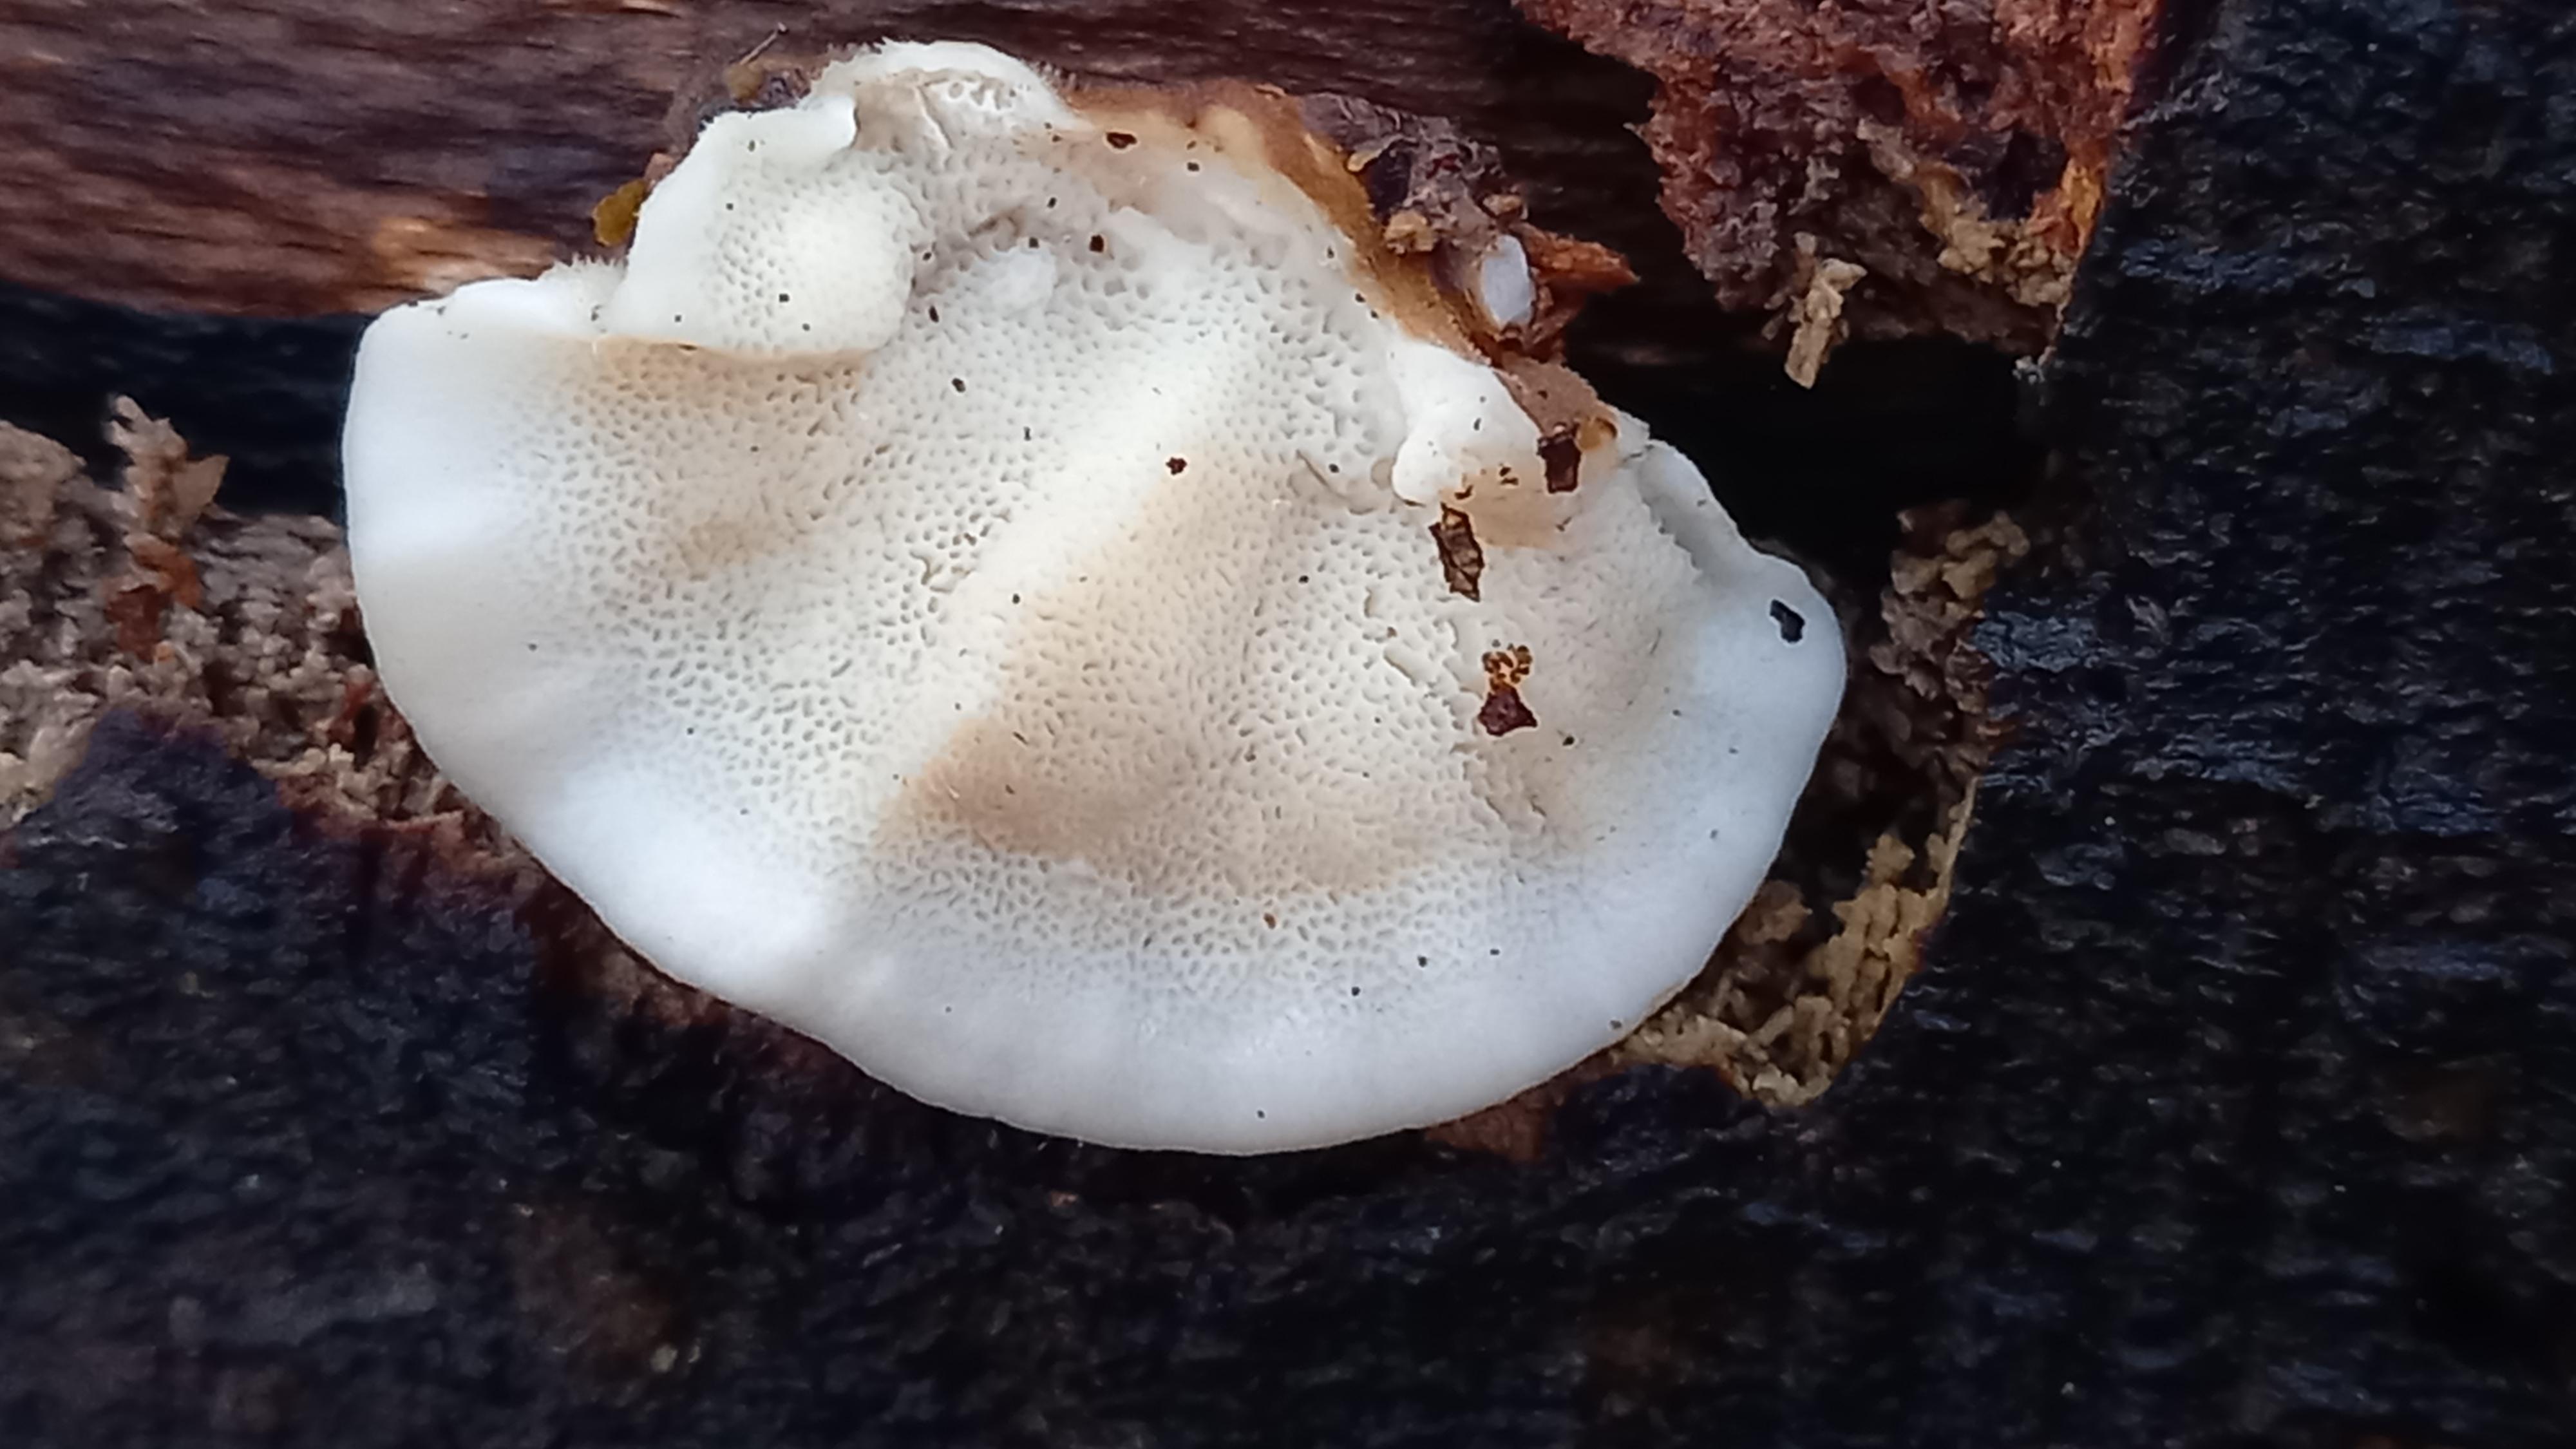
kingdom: Fungi
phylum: Basidiomycota
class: Agaricomycetes
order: Polyporales
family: Polyporaceae
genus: Trametes
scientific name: Trametes versicolor
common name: broget læderporesvamp
